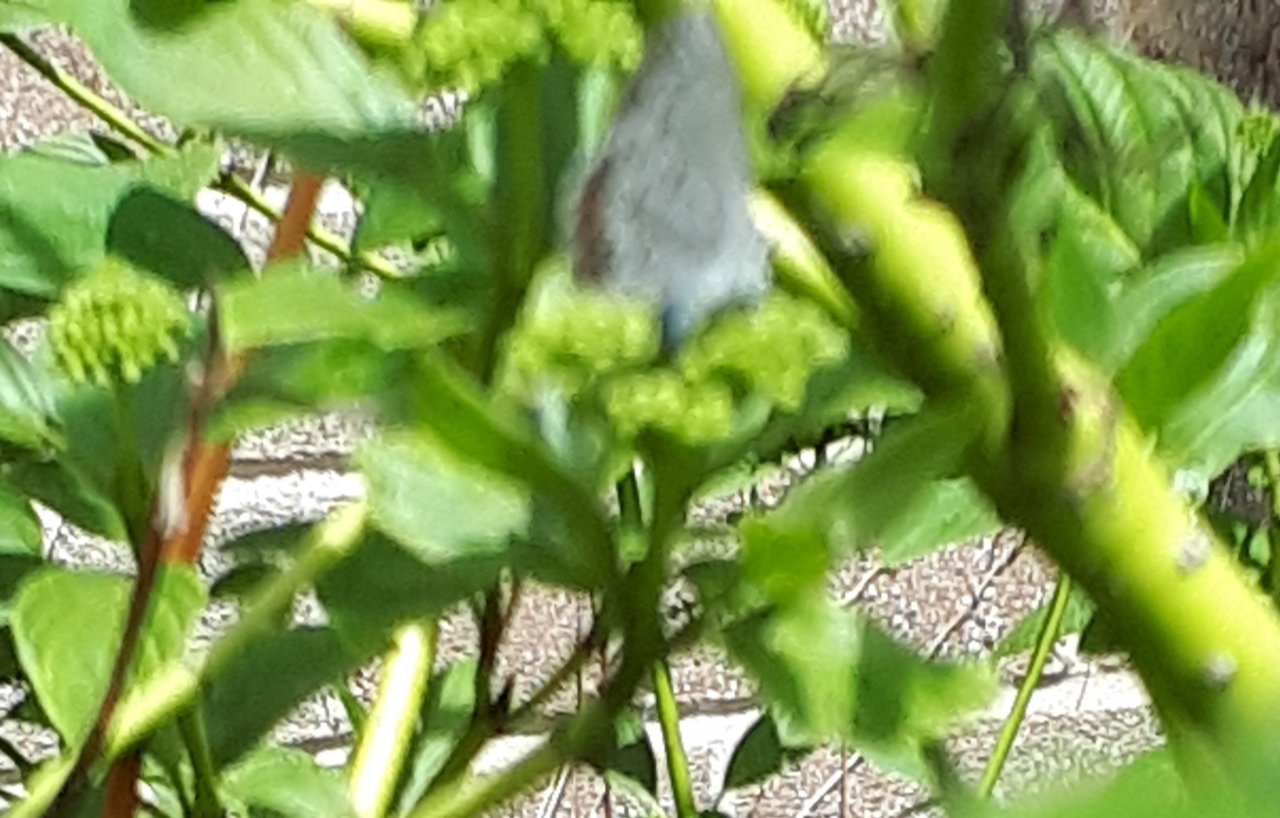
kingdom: Animalia
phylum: Arthropoda
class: Insecta
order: Lepidoptera
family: Lycaenidae
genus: Celastrina
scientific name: Celastrina lucia
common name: Northern Spring Azure
